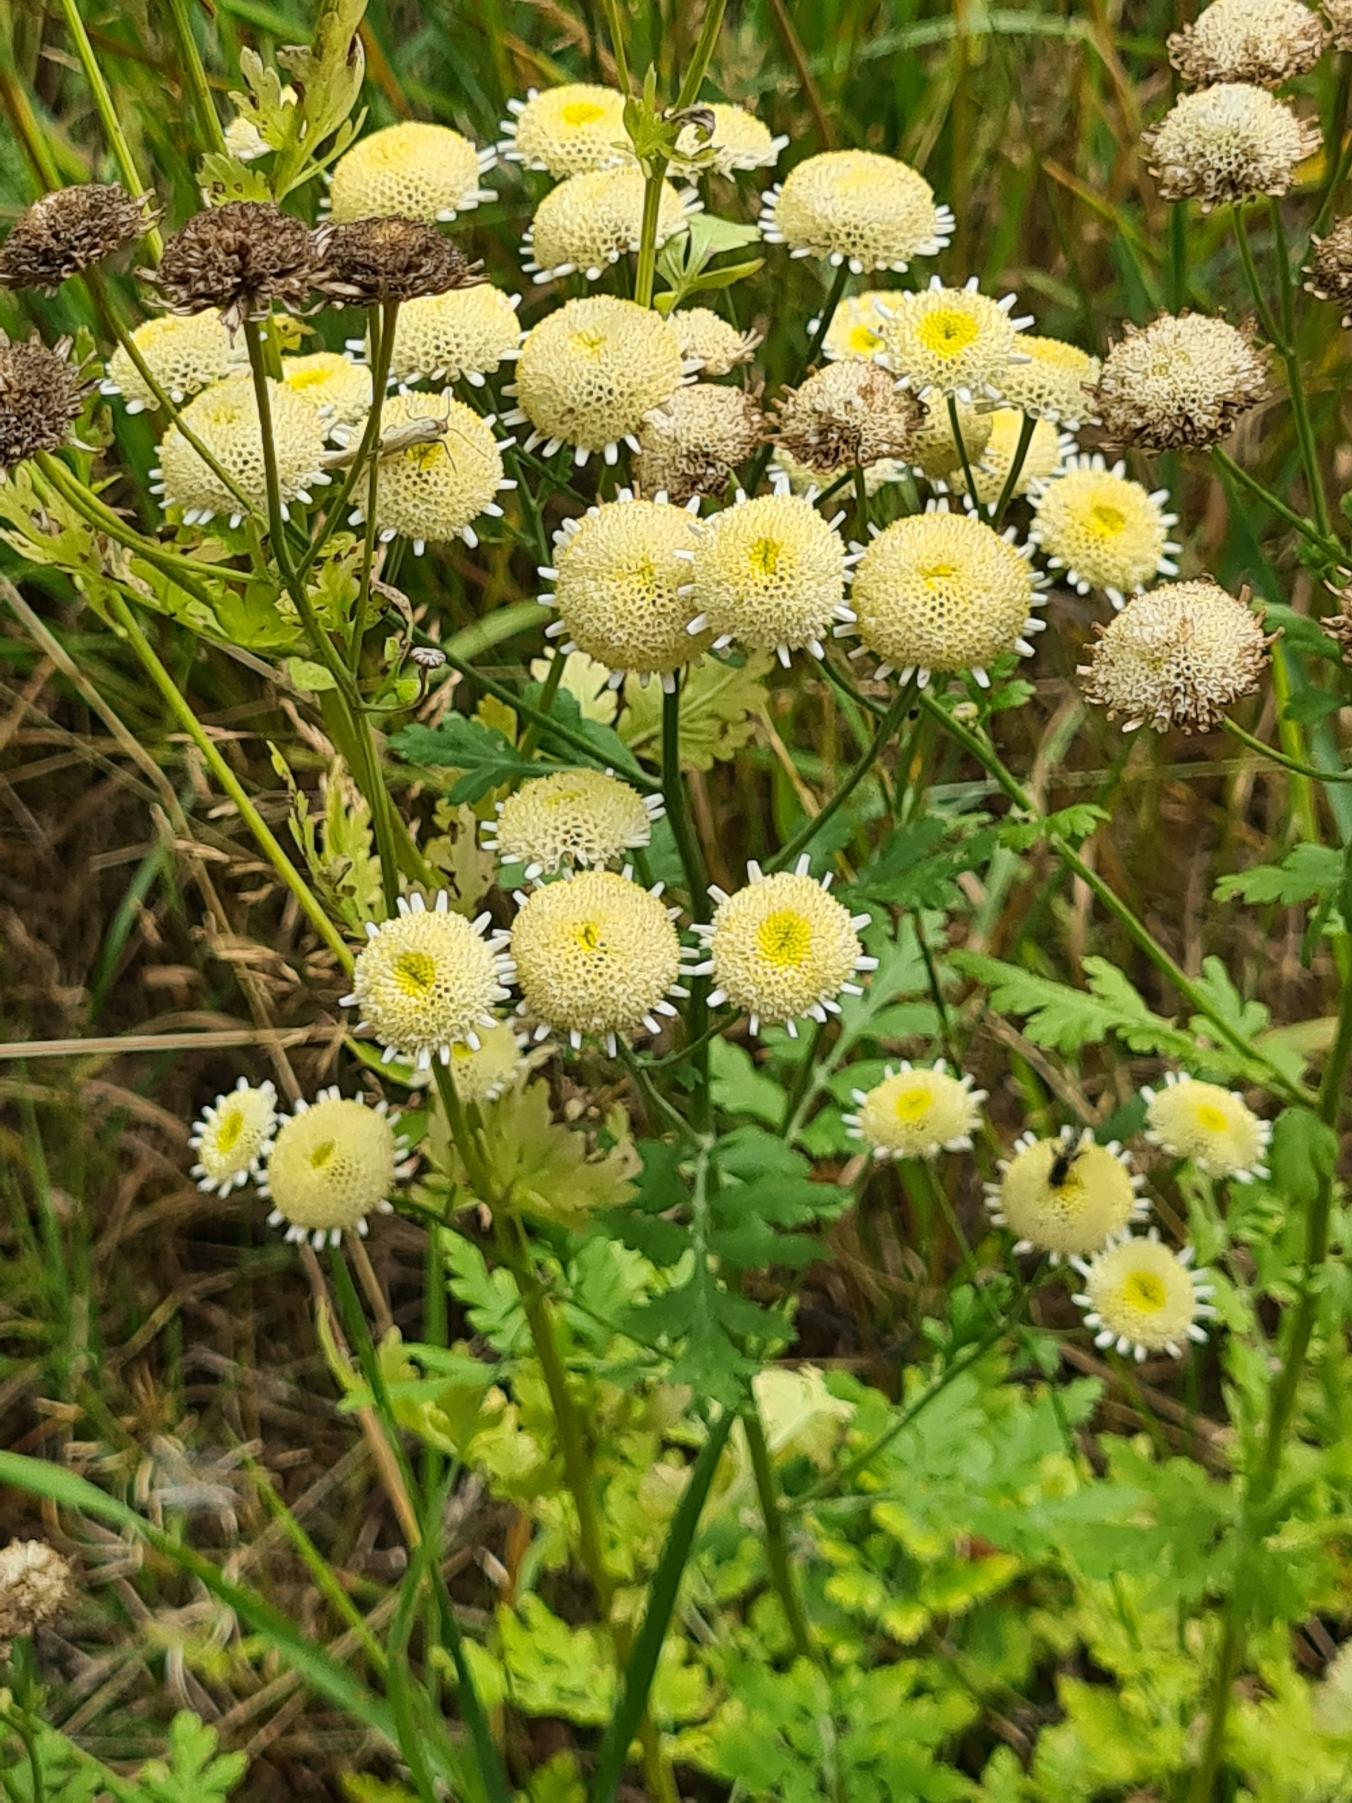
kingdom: Plantae
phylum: Tracheophyta
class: Magnoliopsida
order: Asterales
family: Asteraceae
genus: Tanacetum
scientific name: Tanacetum parthenium
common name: Matrem
